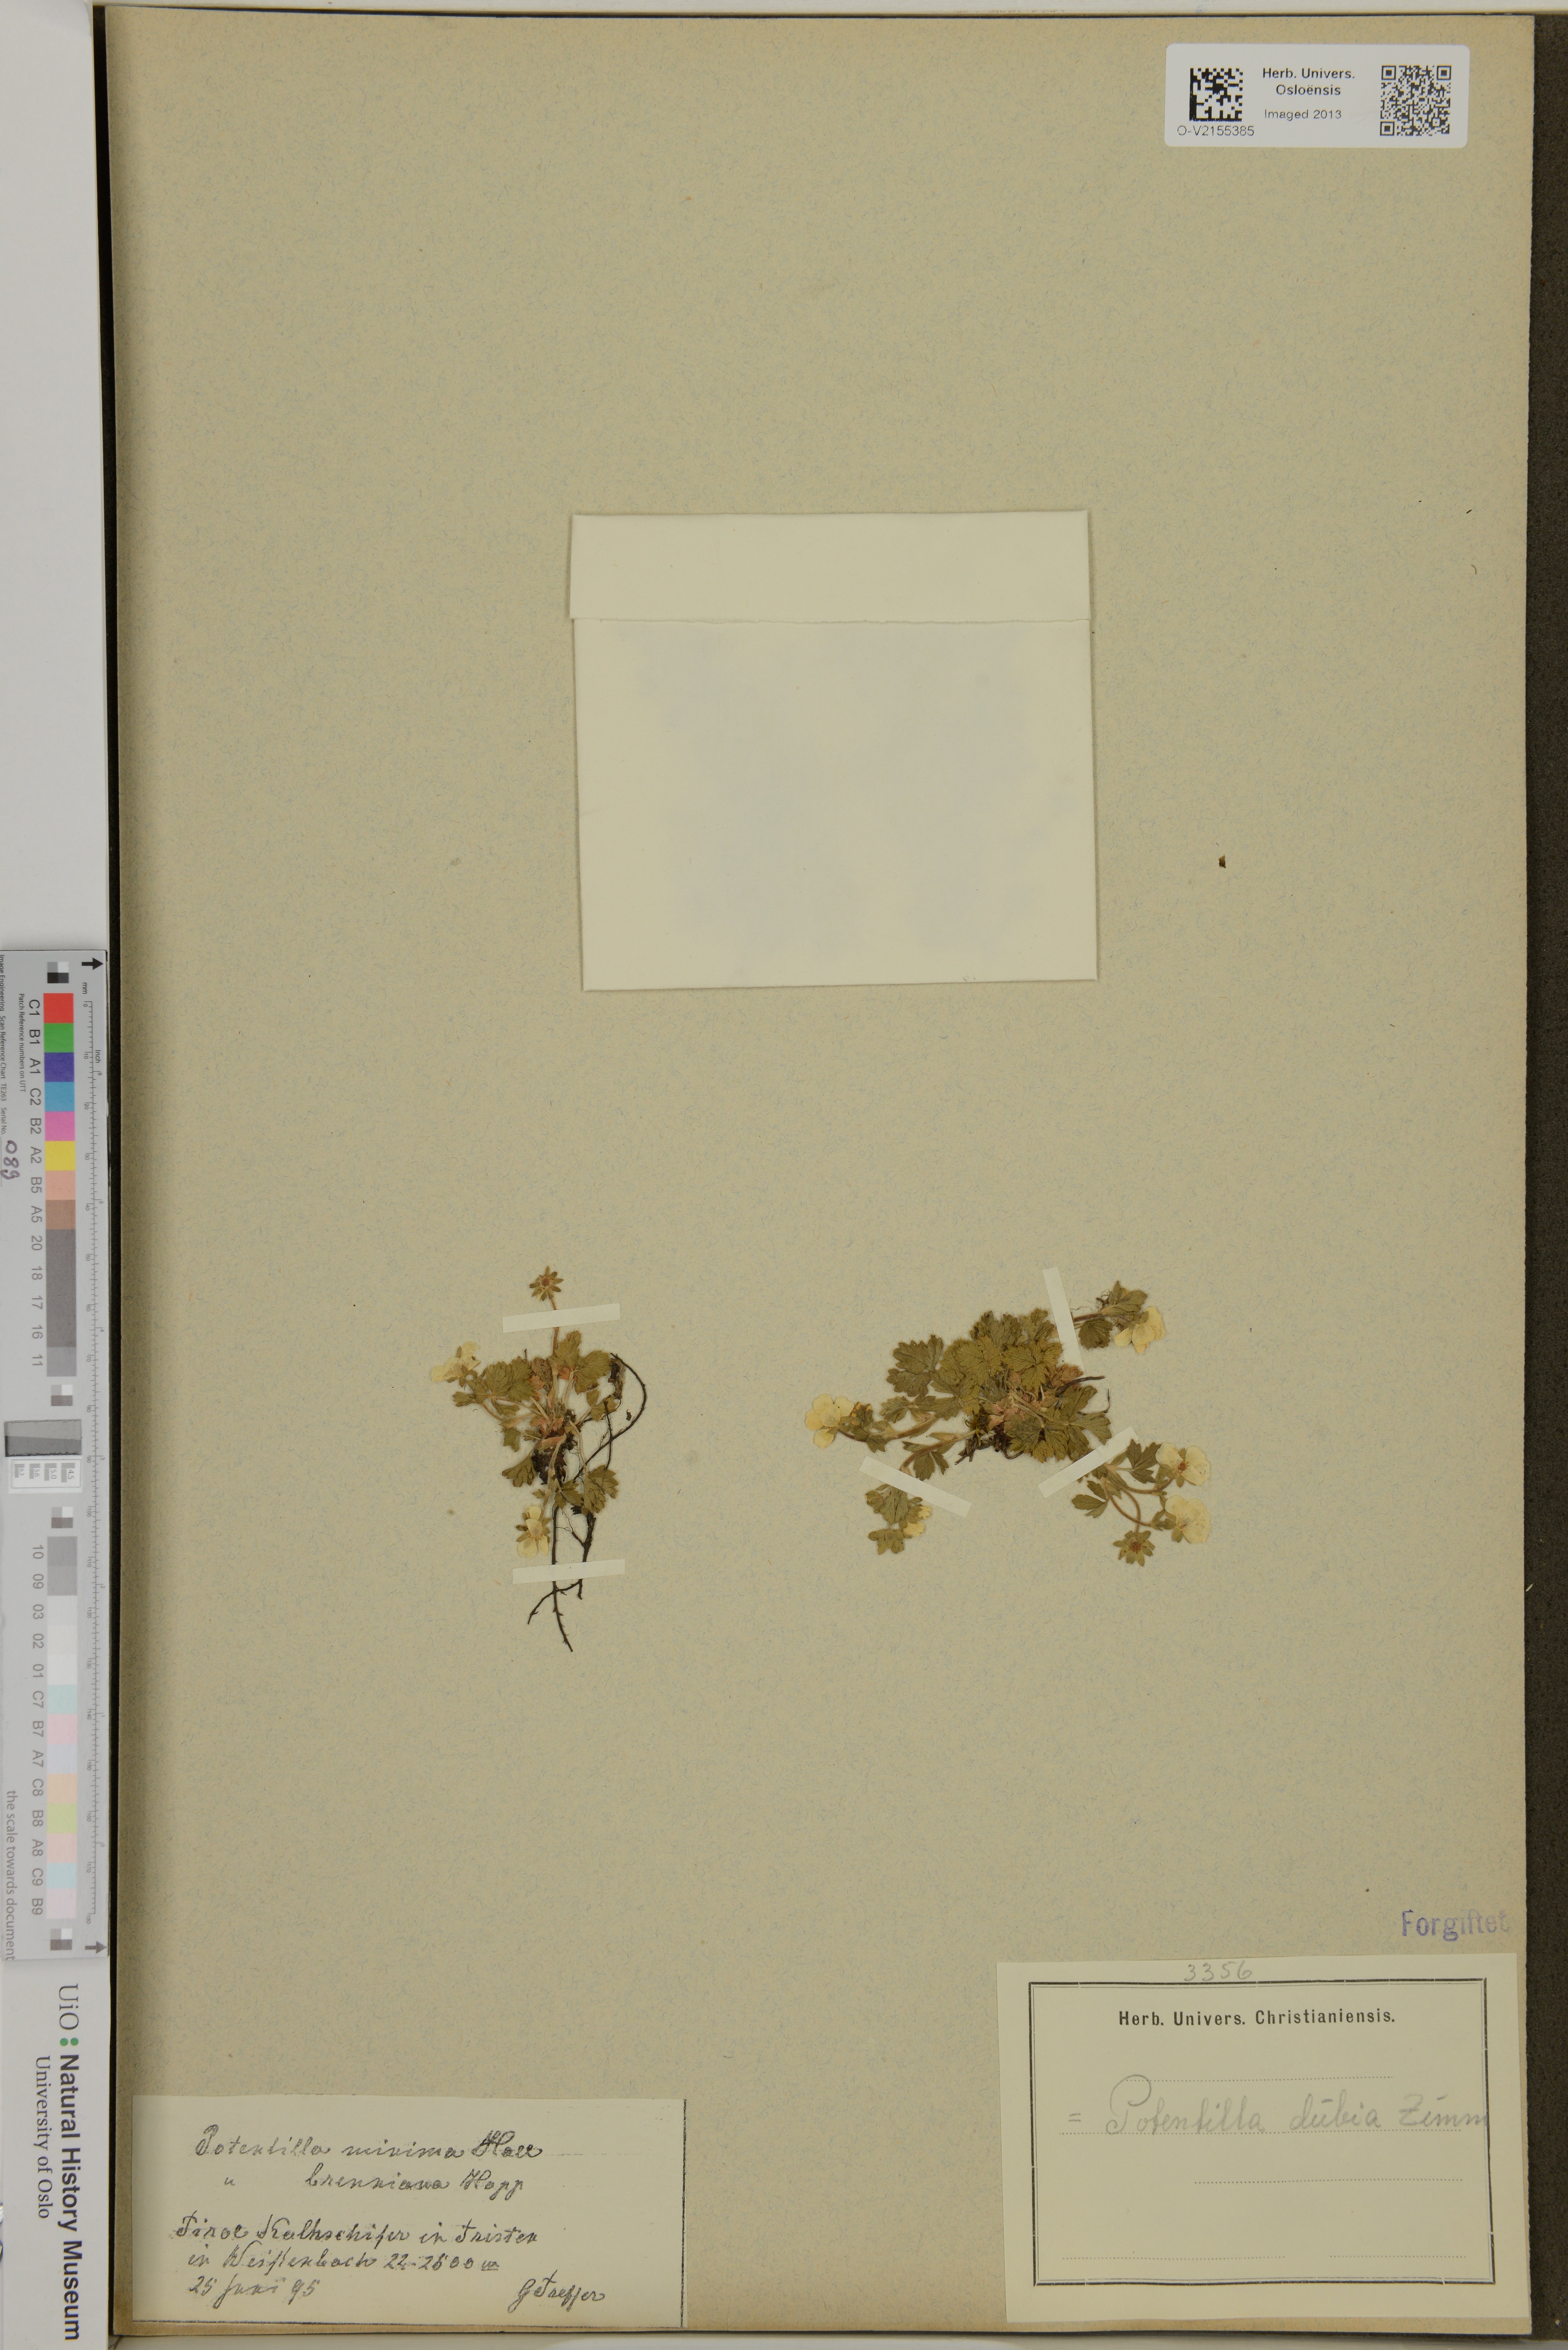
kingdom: Plantae
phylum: Tracheophyta
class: Magnoliopsida
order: Rosales
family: Rosaceae
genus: Potentilla
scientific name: Potentilla
